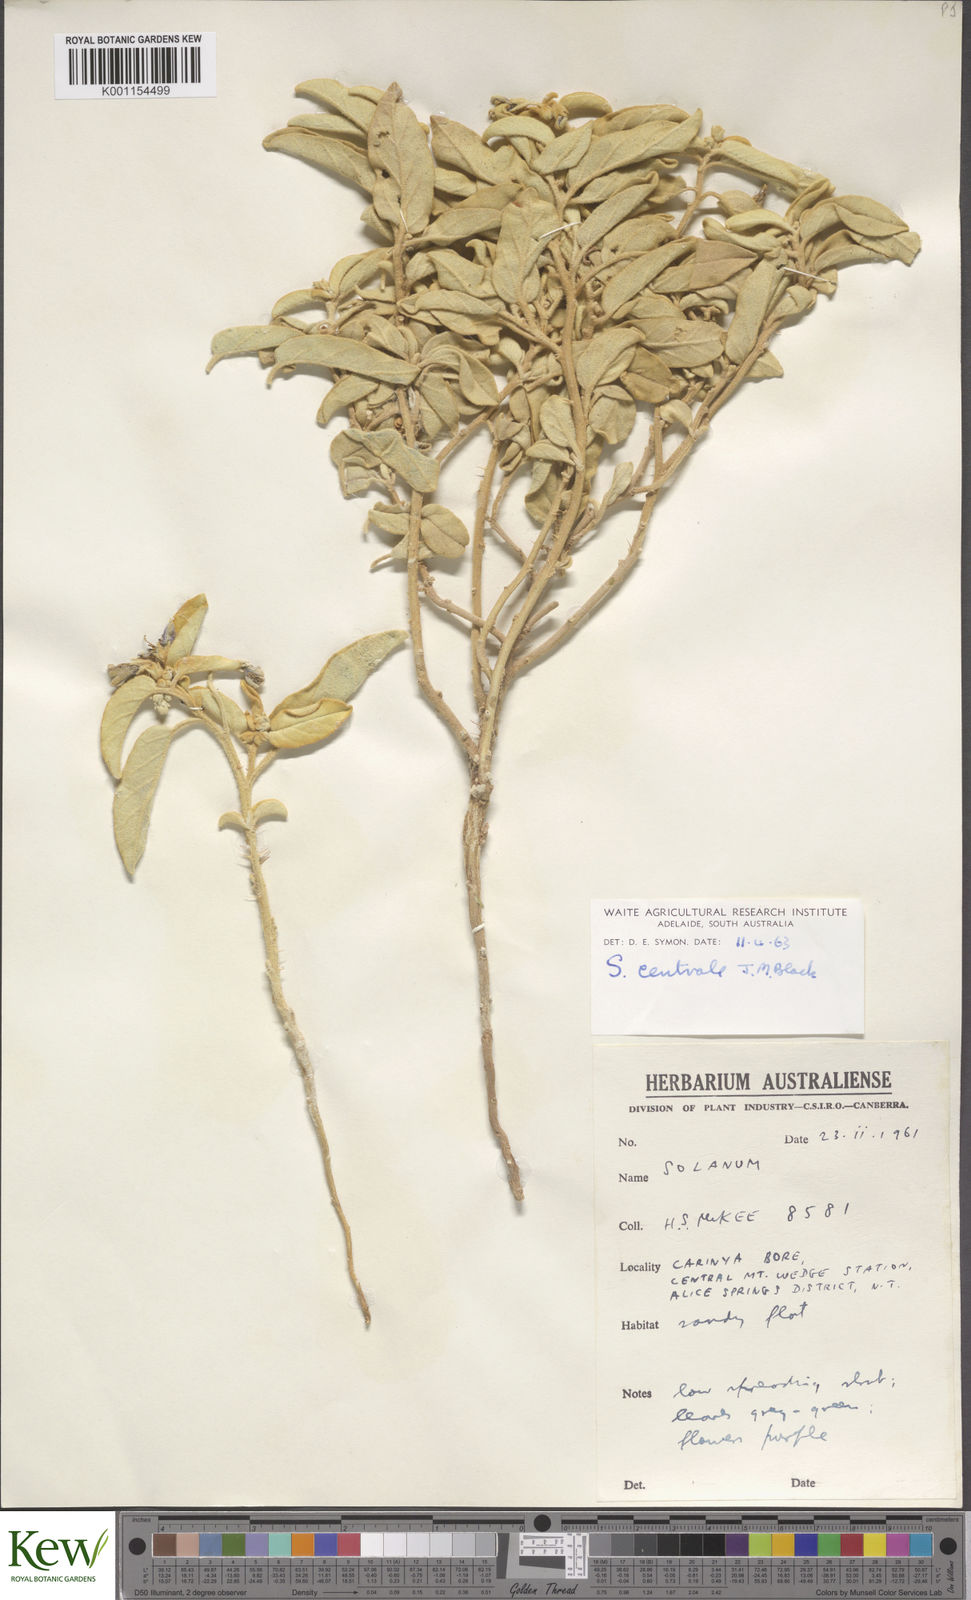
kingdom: Plantae
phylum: Tracheophyta
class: Magnoliopsida
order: Solanales
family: Solanaceae
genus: Solanum
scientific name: Solanum centrale
